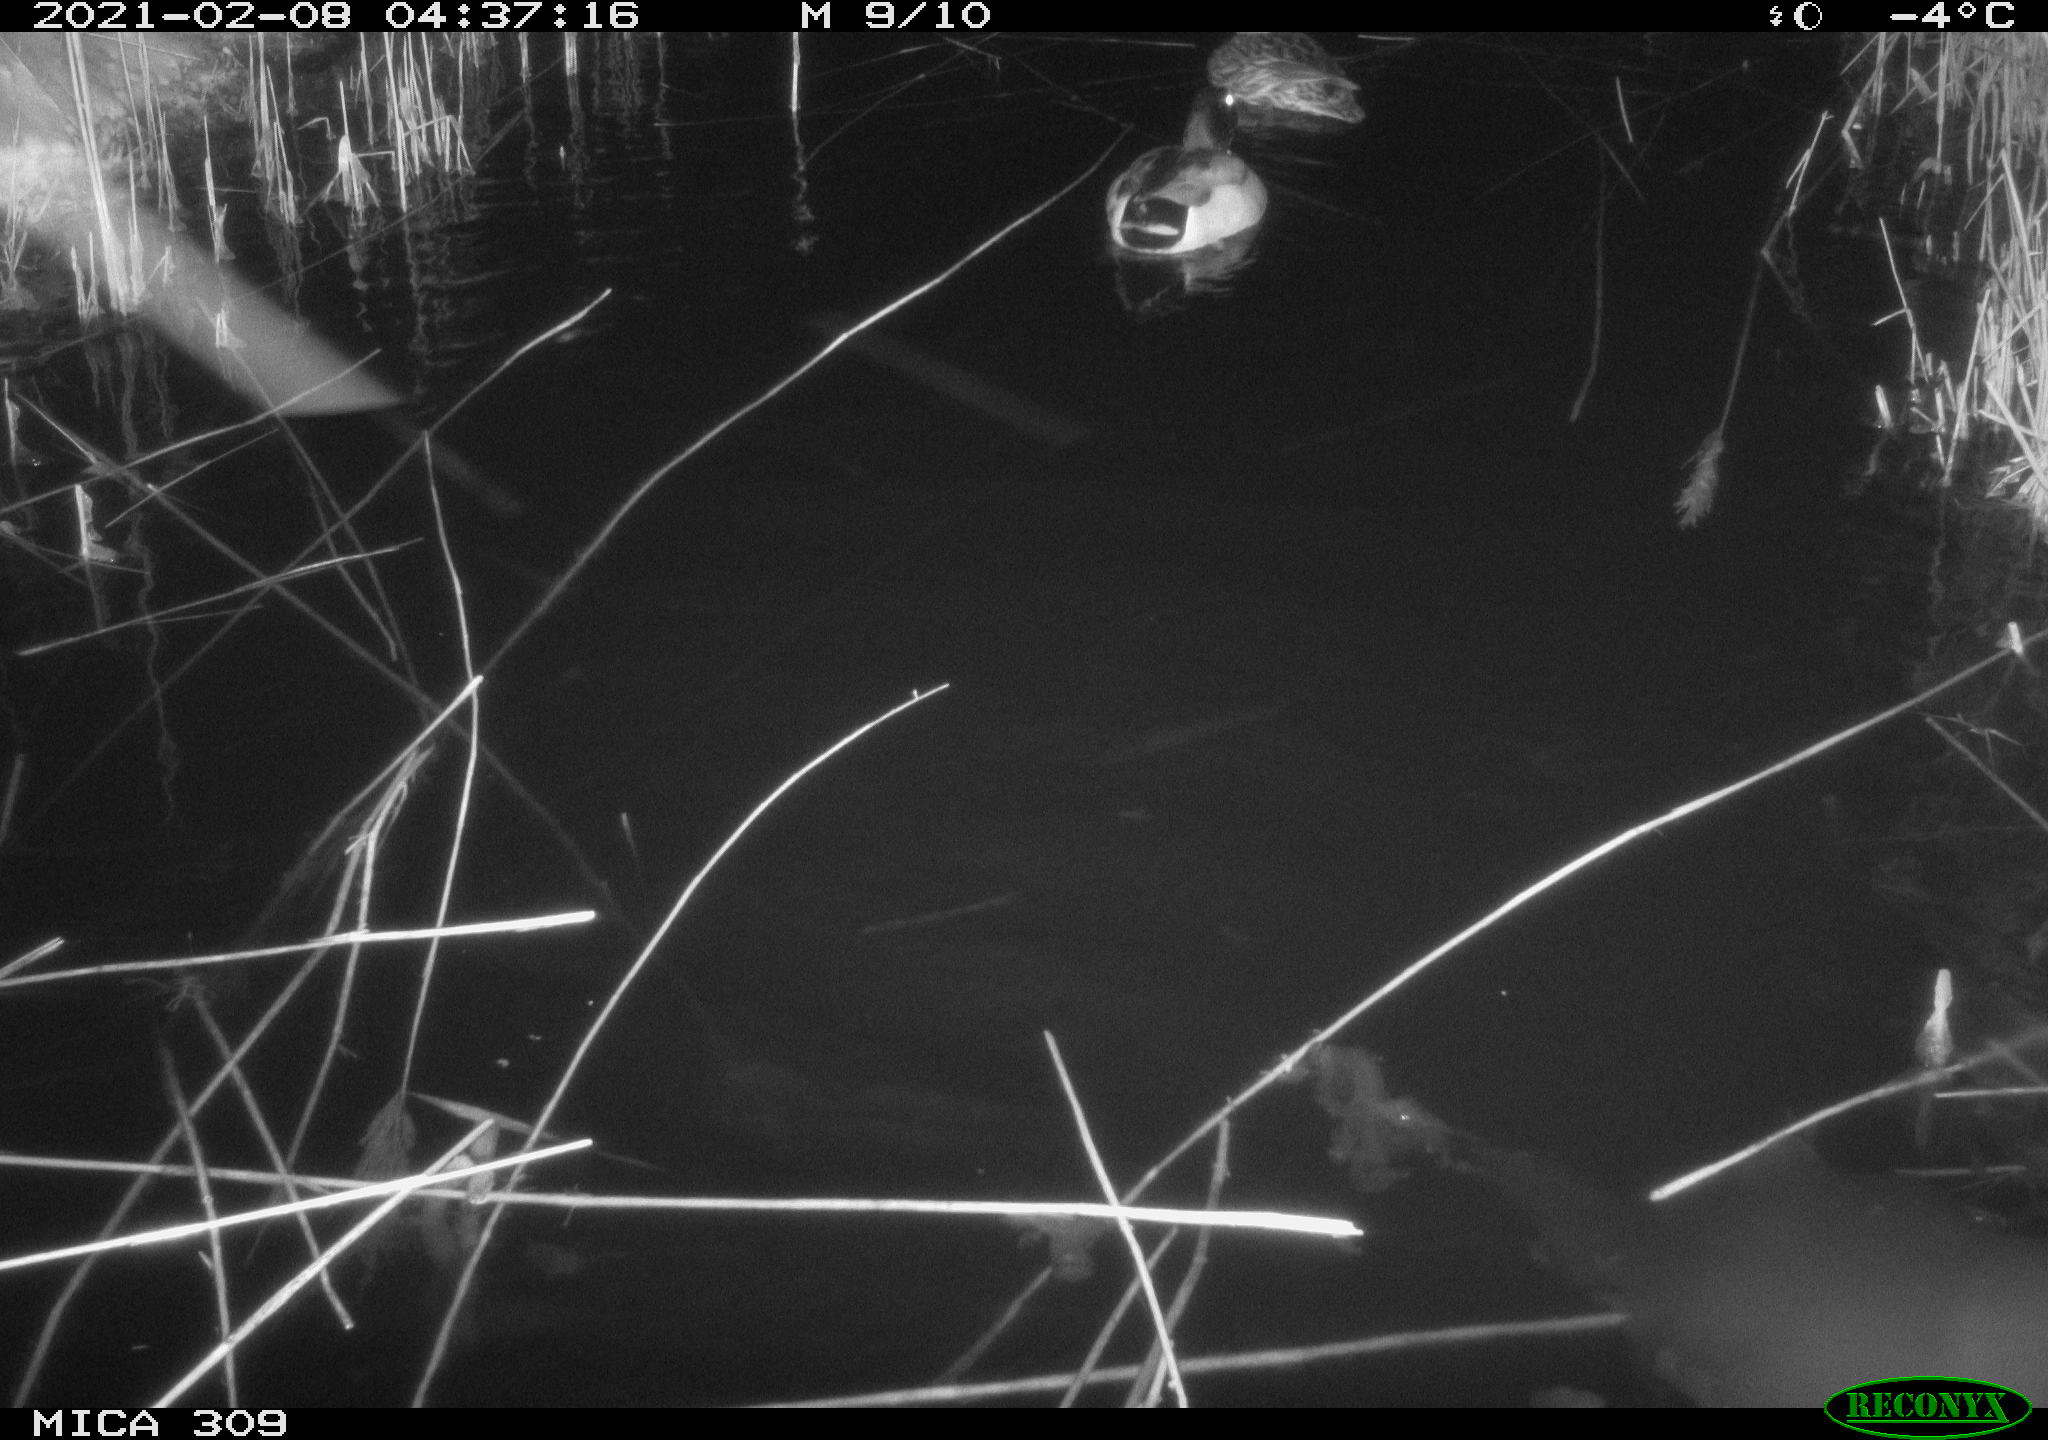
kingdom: Animalia
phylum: Chordata
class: Aves
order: Anseriformes
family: Anatidae
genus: Anas
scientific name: Anas platyrhynchos
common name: Mallard
